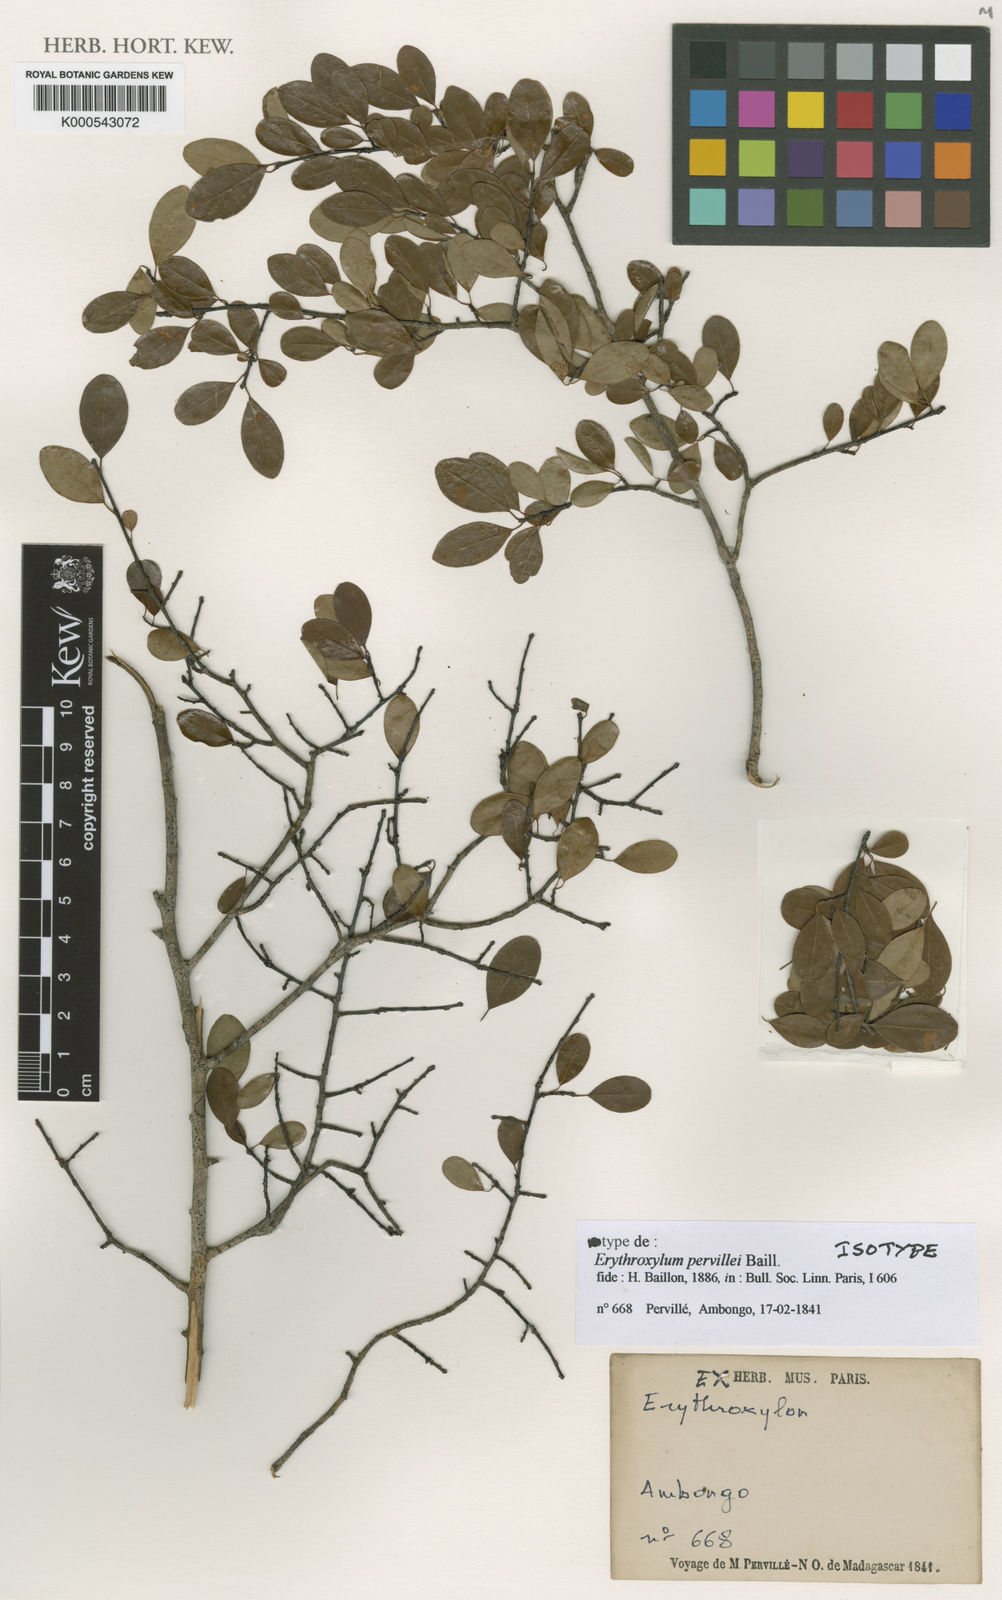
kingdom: Plantae
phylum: Tracheophyta
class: Magnoliopsida
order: Malpighiales
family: Erythroxylaceae
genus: Erythroxylum
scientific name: Erythroxylum pervillei
